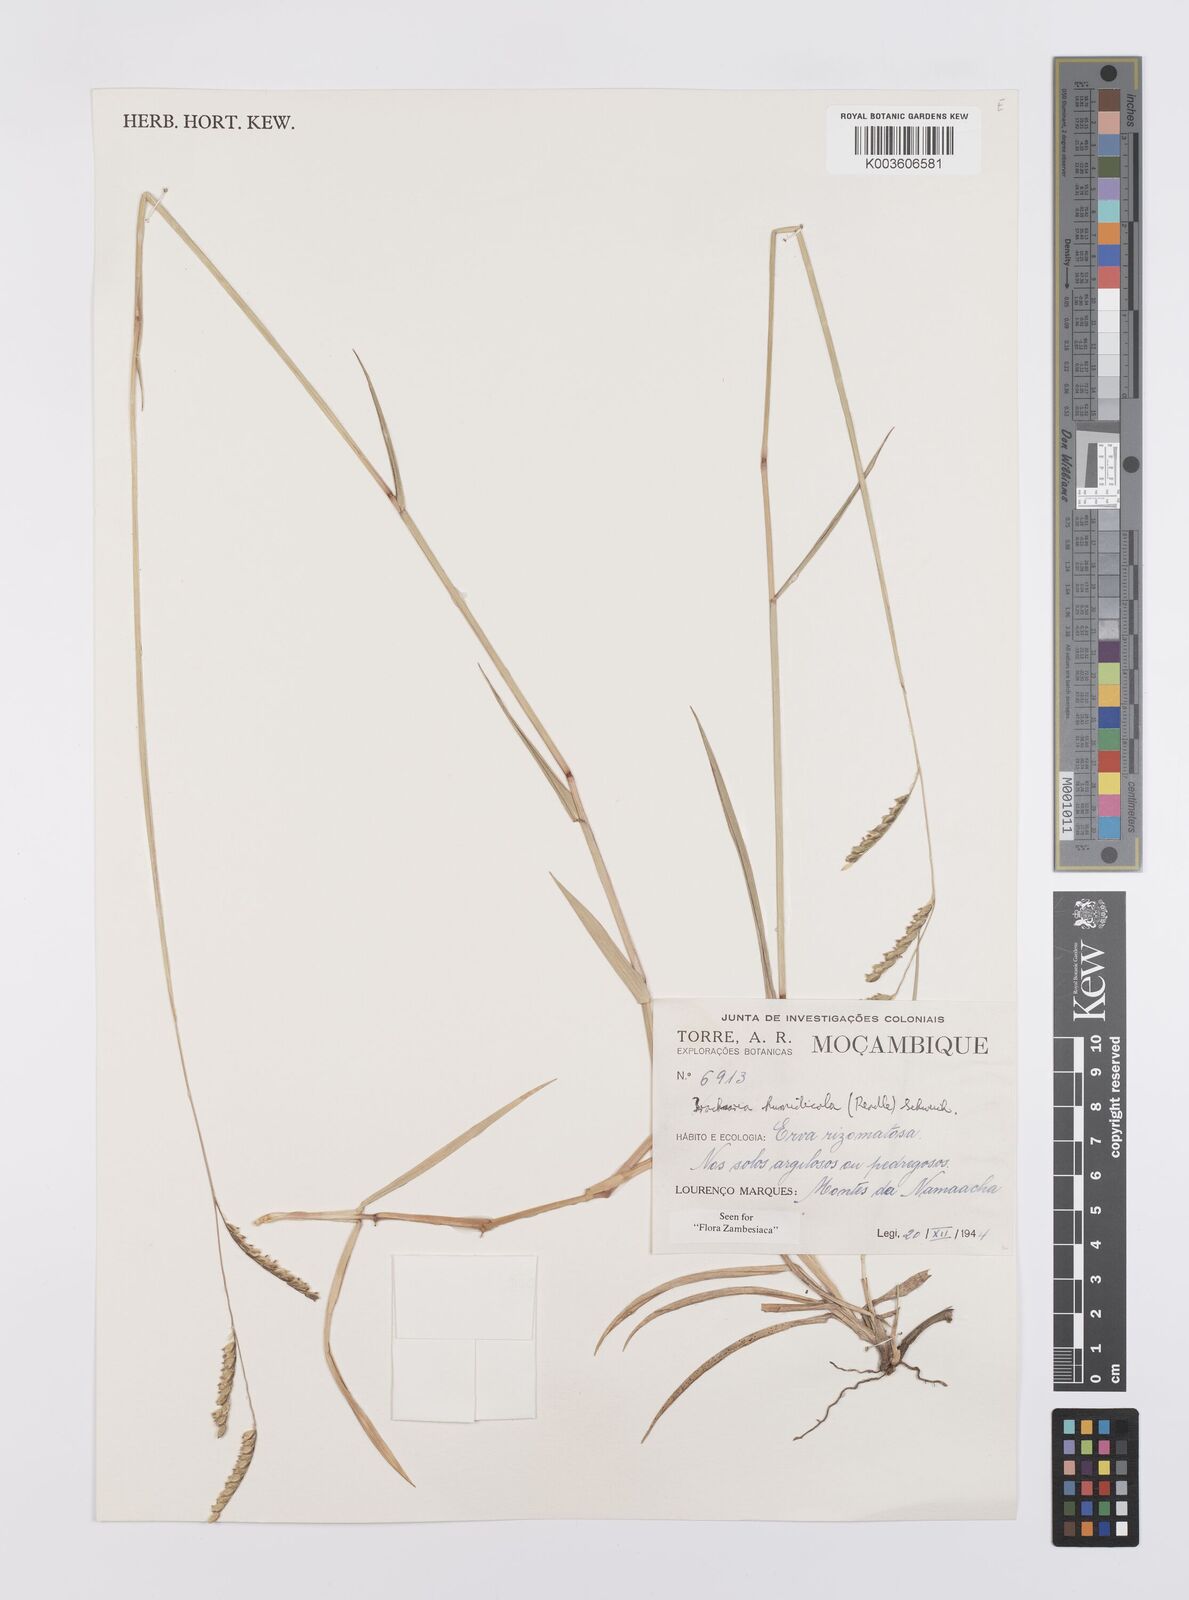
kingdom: Plantae
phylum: Tracheophyta
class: Liliopsida
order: Poales
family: Poaceae
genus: Urochloa
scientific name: Urochloa dictyoneura
